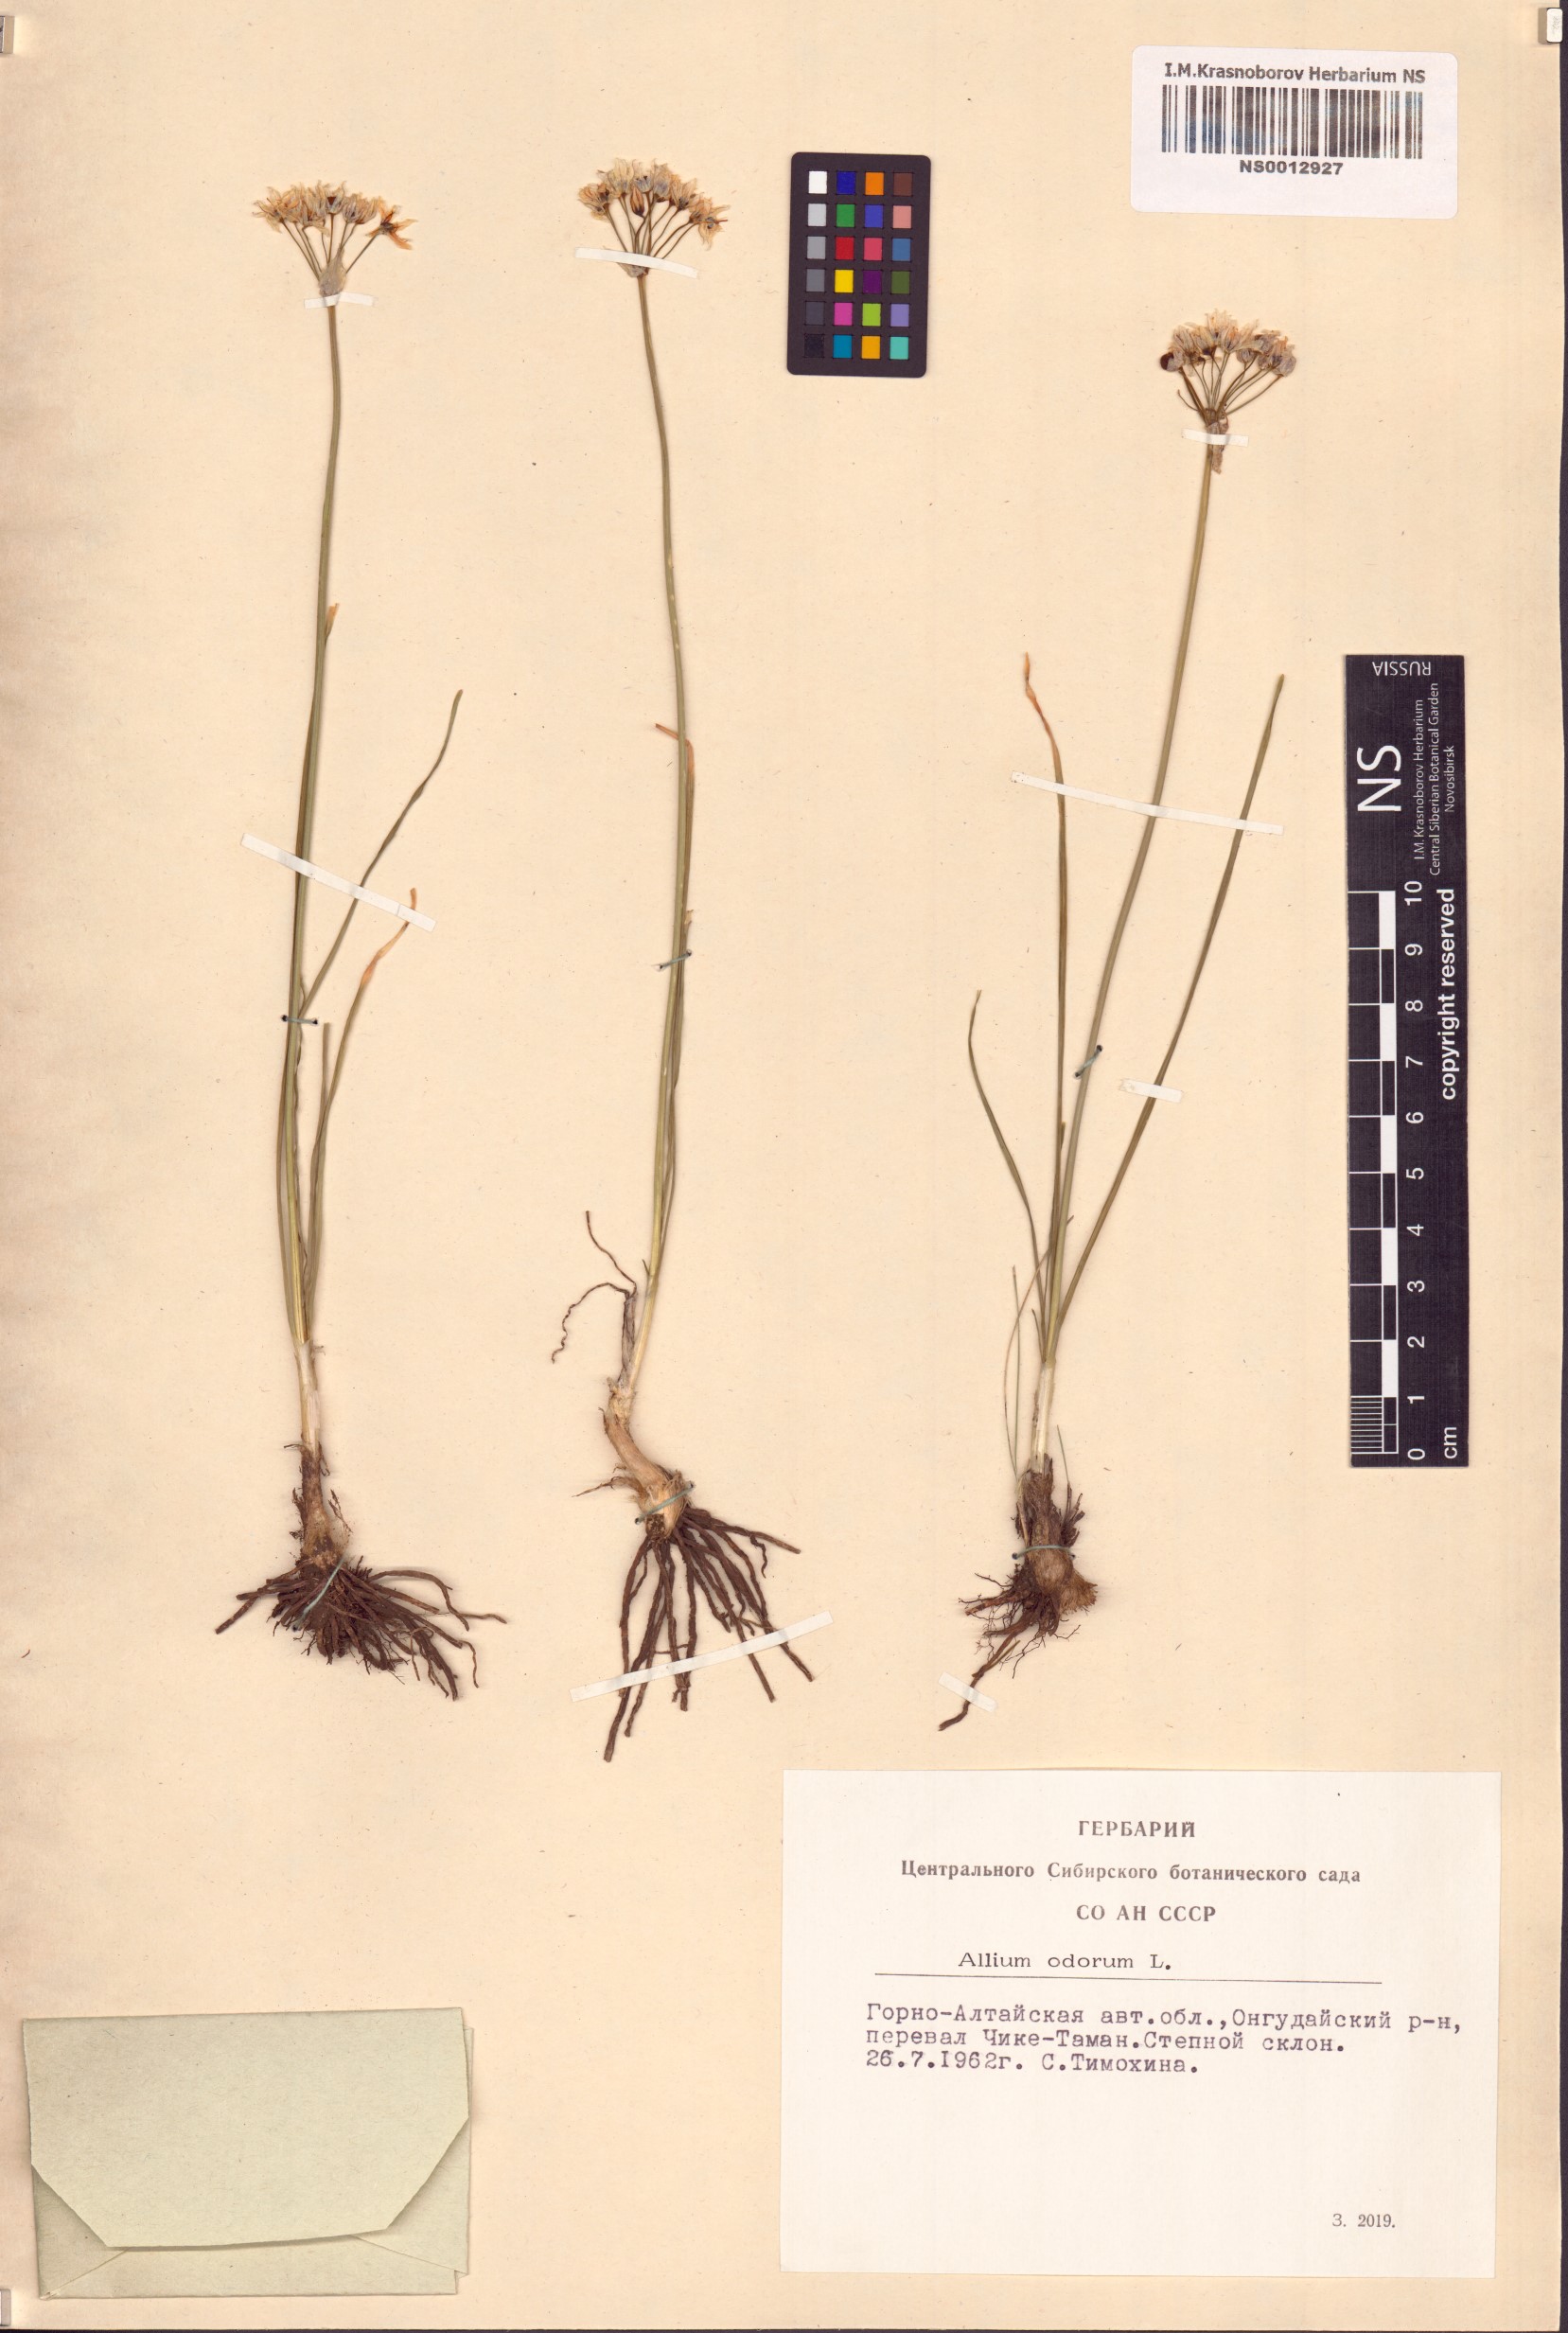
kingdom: Plantae
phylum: Tracheophyta
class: Liliopsida
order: Asparagales
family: Amaryllidaceae
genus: Allium
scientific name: Allium ramosum
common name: Fragrant garlic
